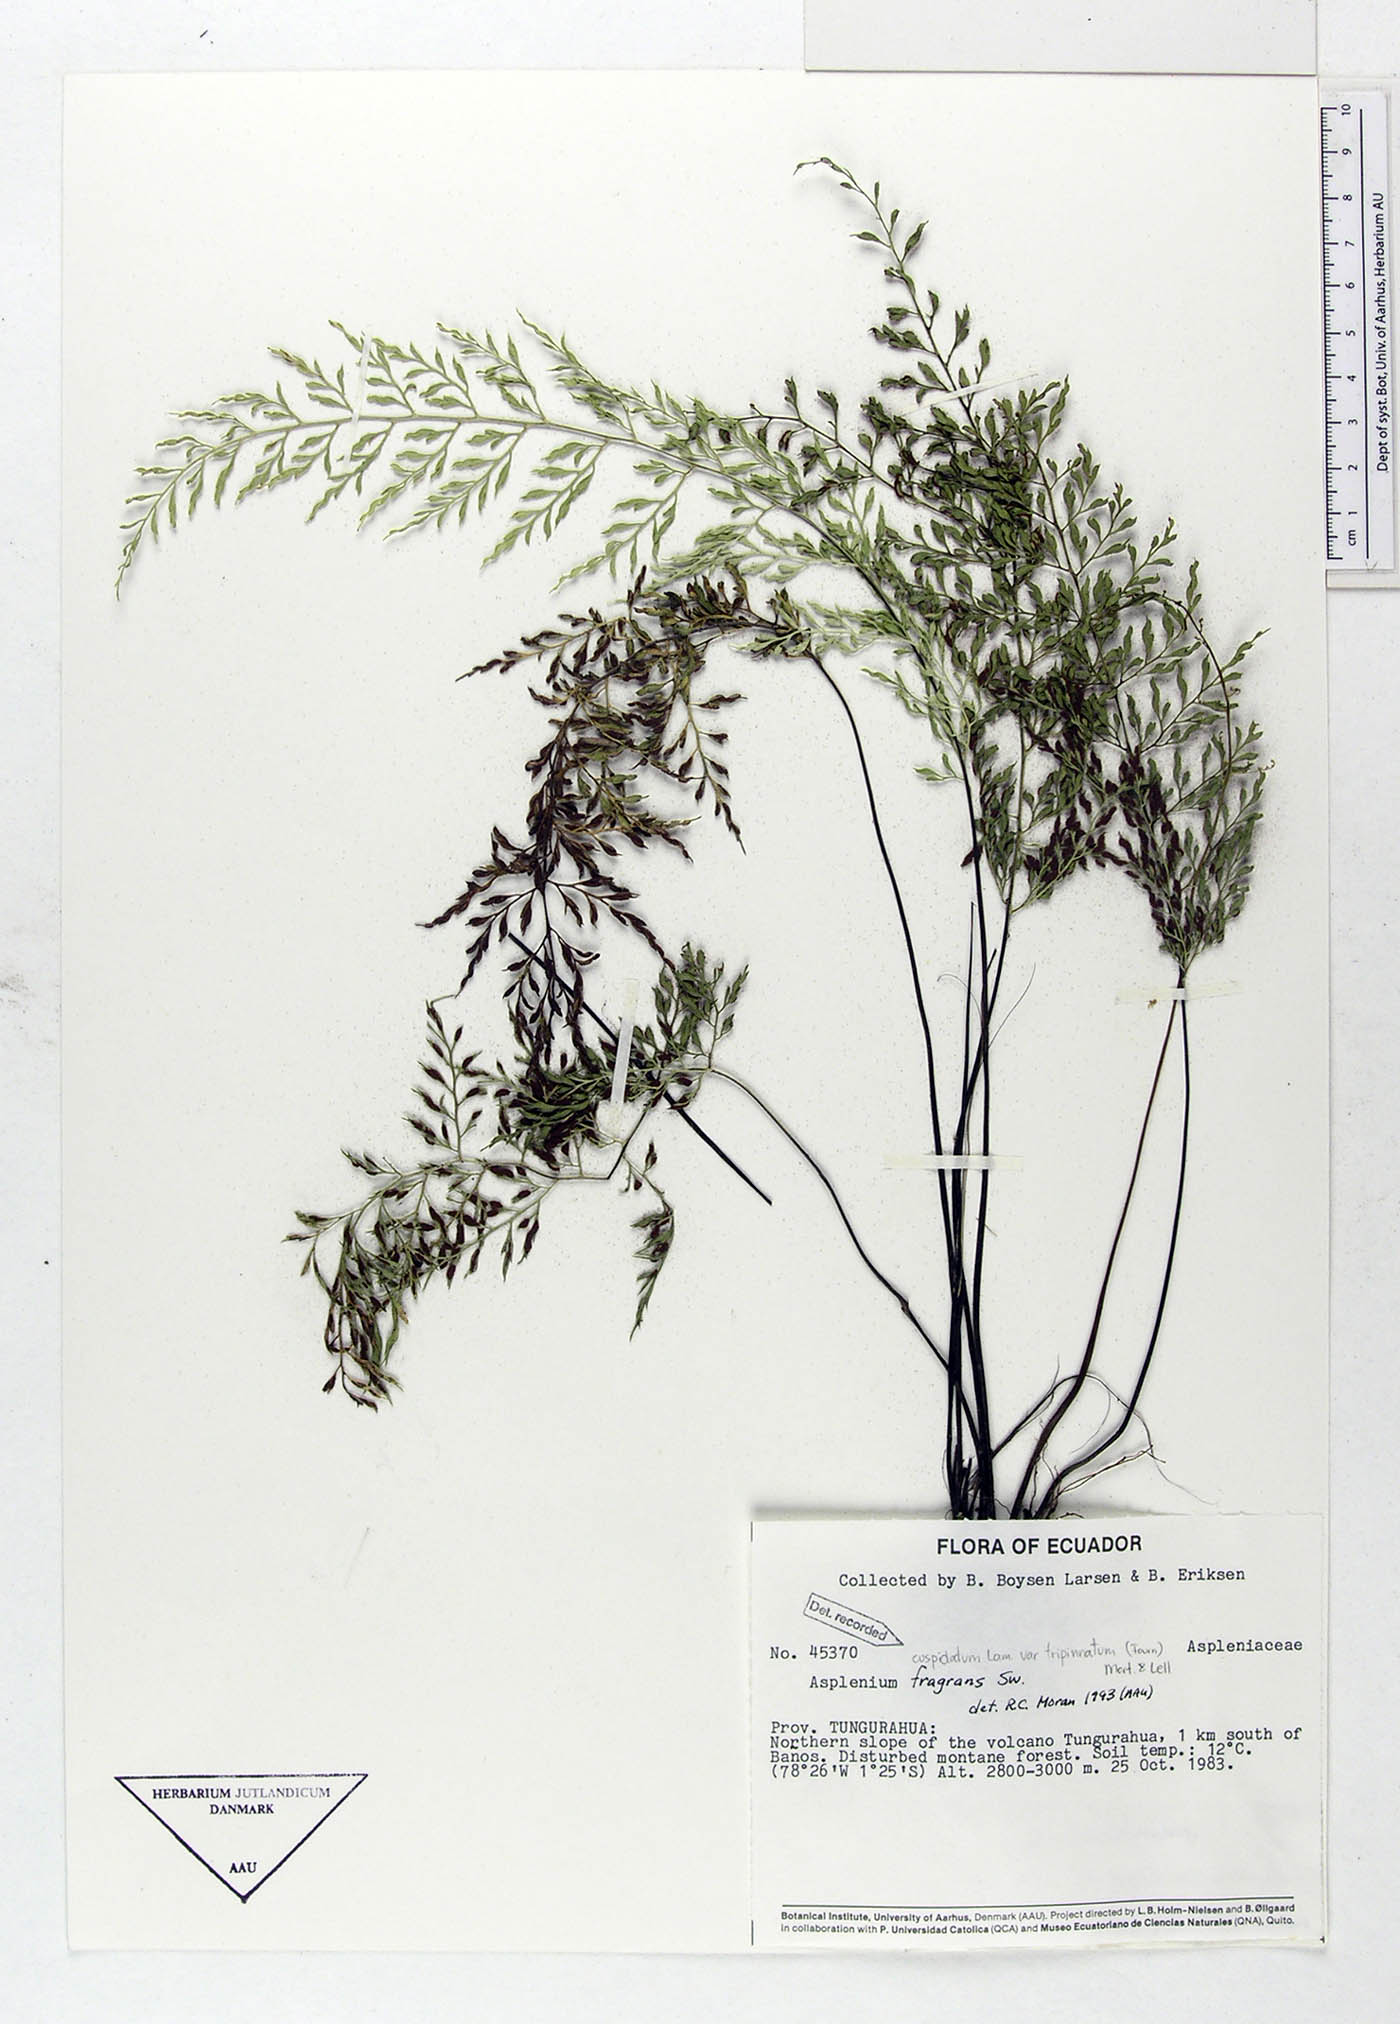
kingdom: Plantae
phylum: Tracheophyta
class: Polypodiopsida
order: Polypodiales
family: Aspleniaceae
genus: Asplenium
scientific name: Asplenium fragrans
